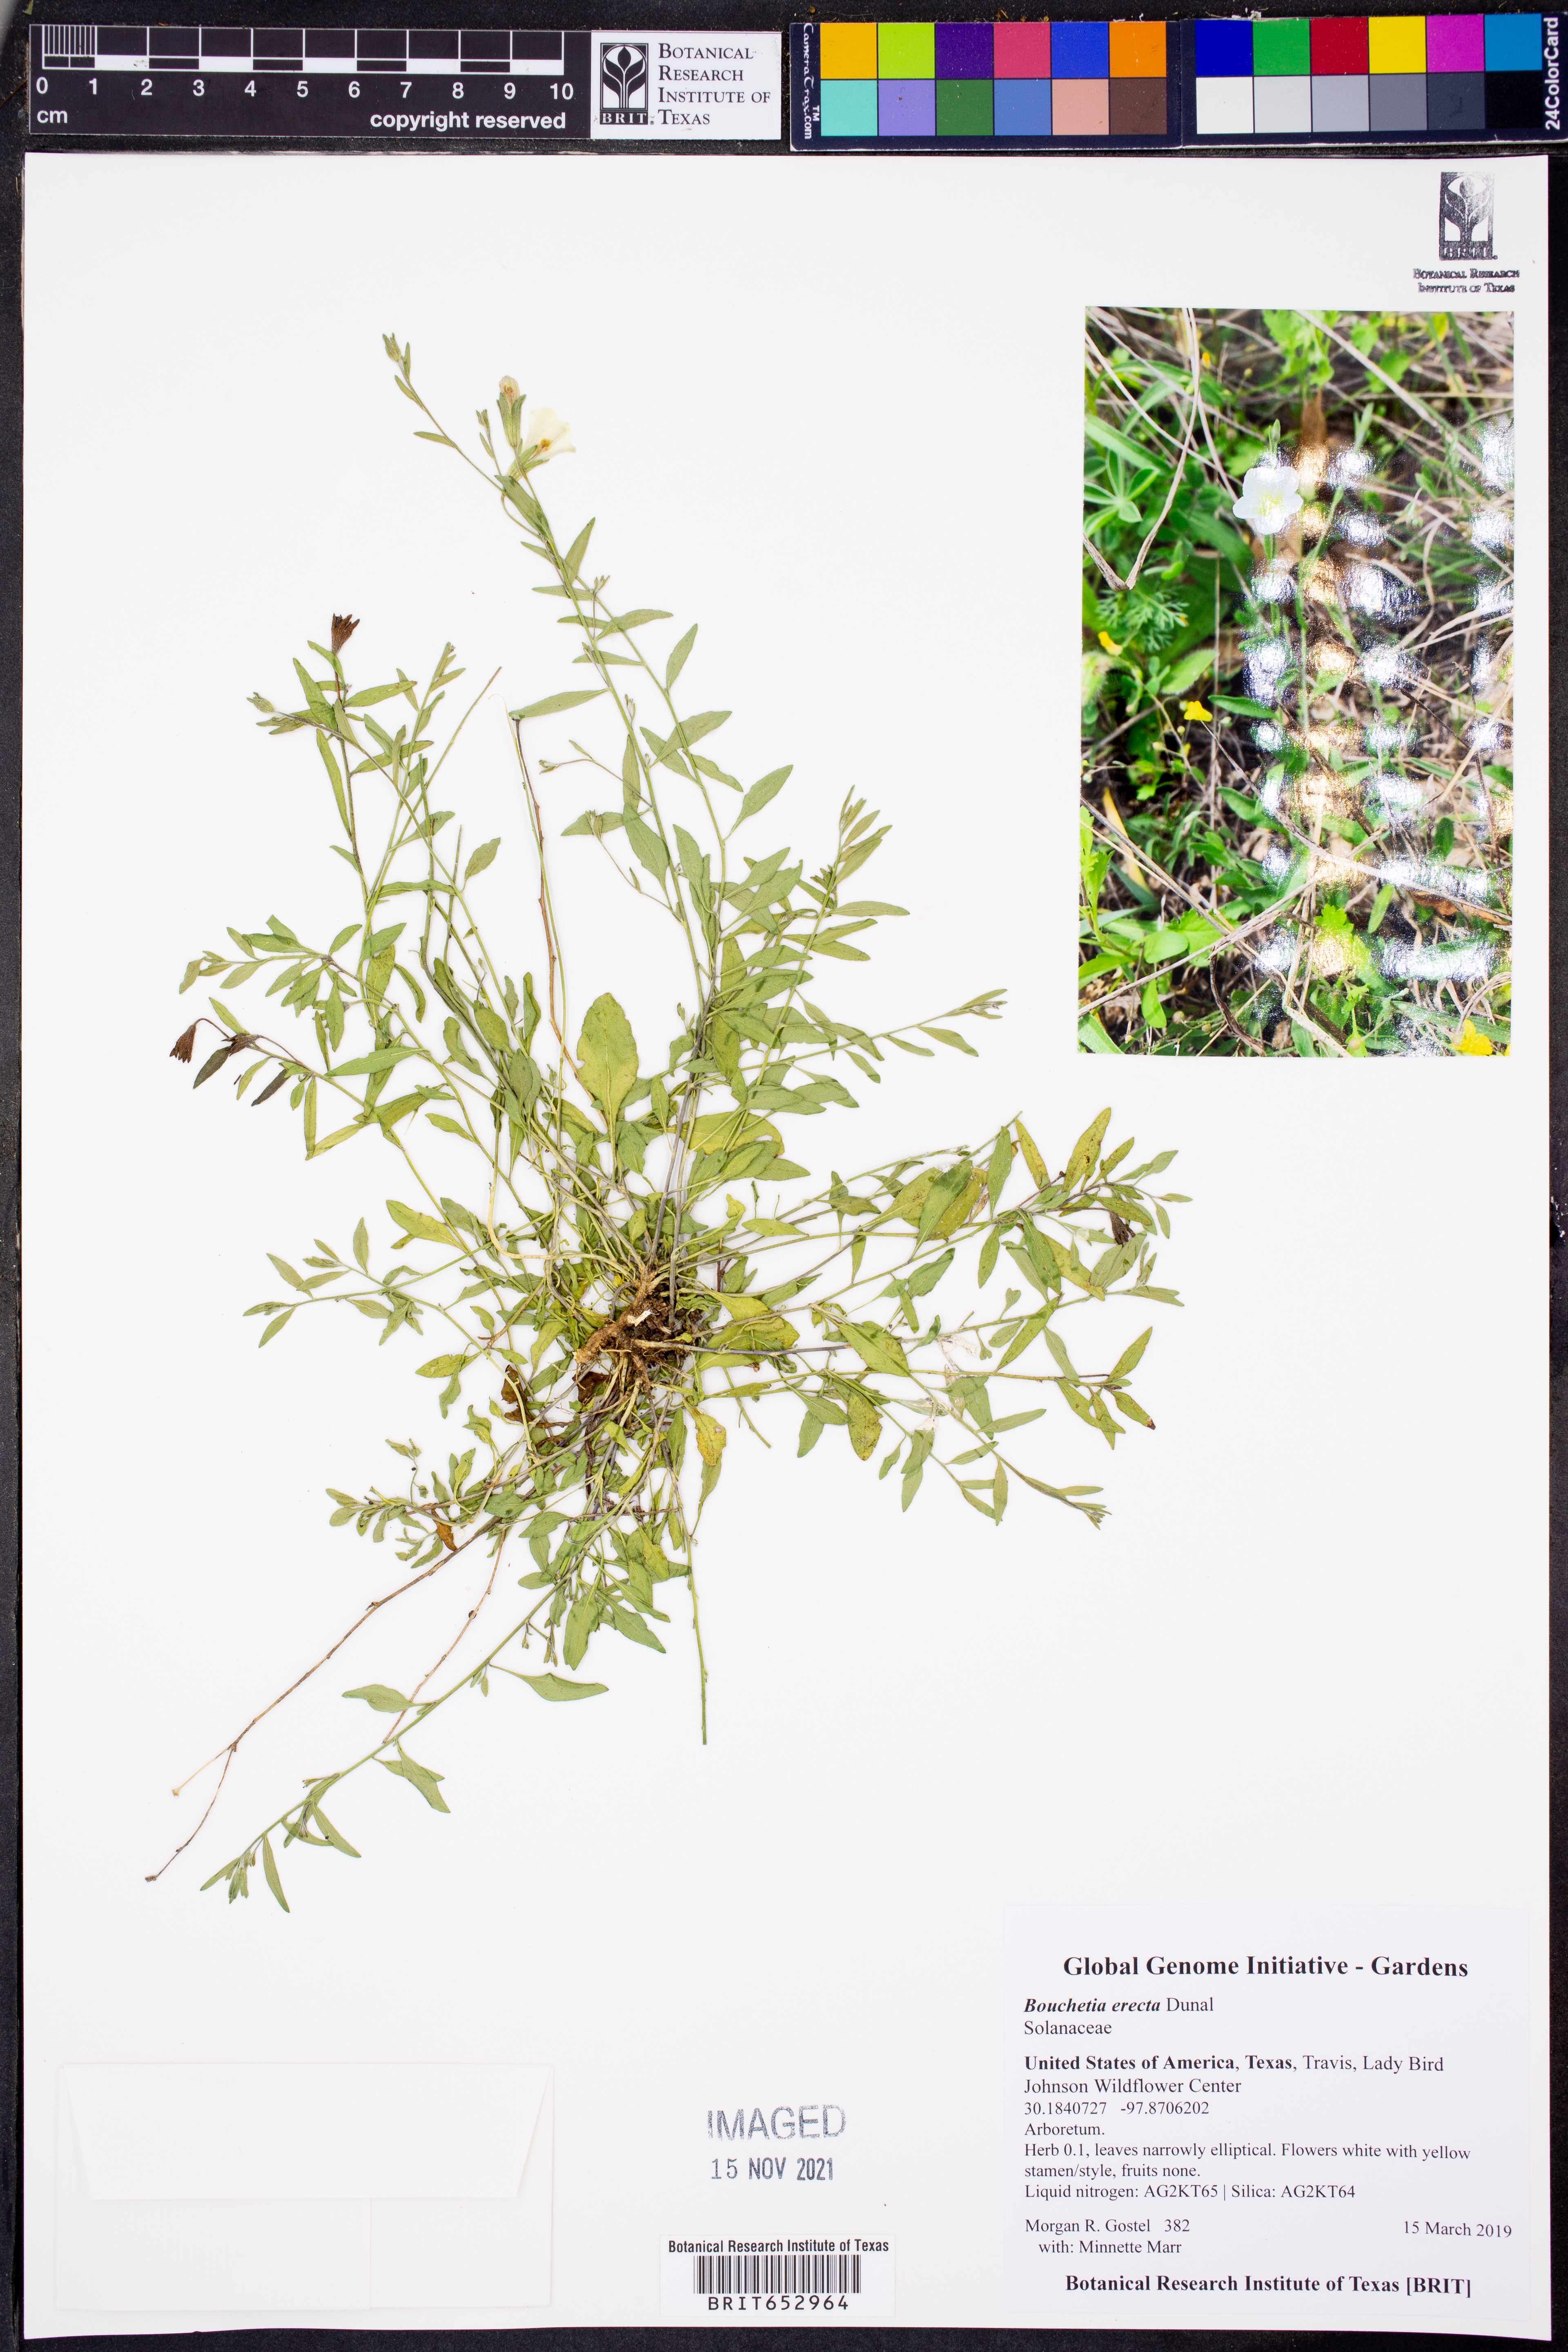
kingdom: Plantae
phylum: Tracheophyta
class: Magnoliopsida
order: Solanales
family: Solanaceae
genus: Salpiglossis
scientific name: Salpiglossis erecta
